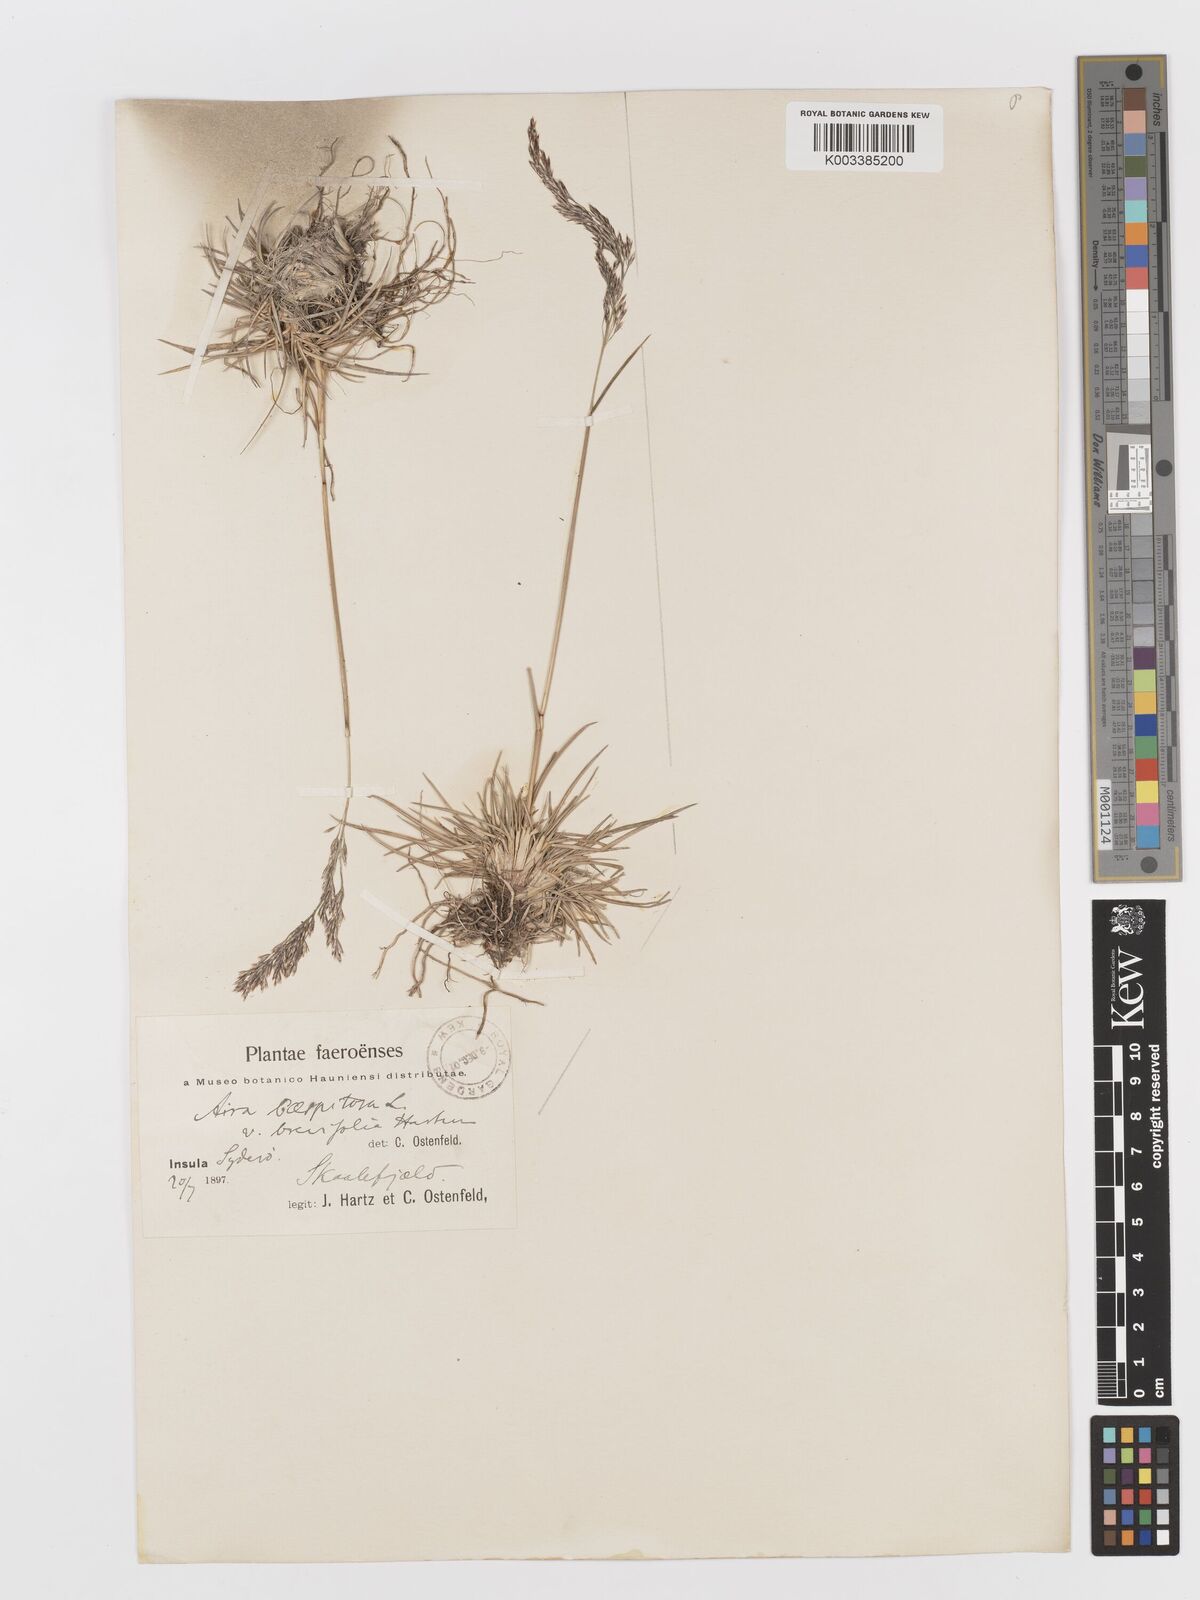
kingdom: Plantae
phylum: Tracheophyta
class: Liliopsida
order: Poales
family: Poaceae
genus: Deschampsia
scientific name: Deschampsia cespitosa
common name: Tufted hair-grass
